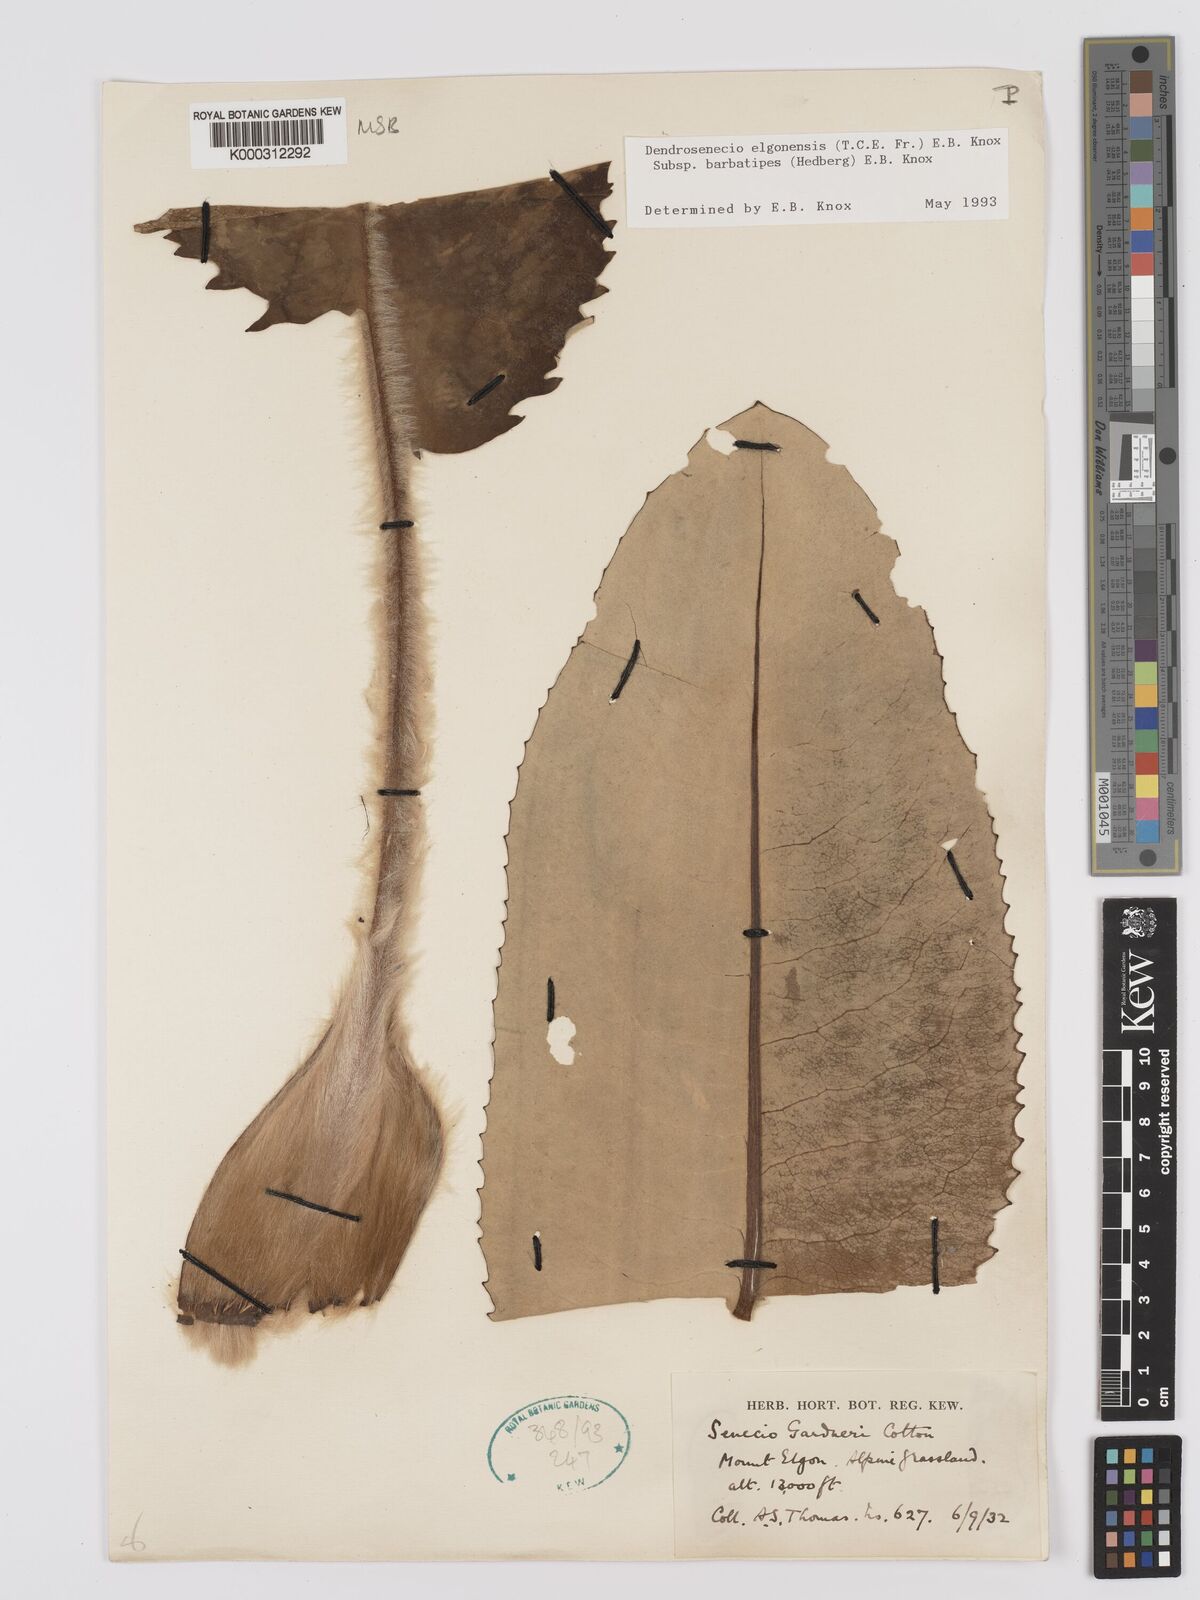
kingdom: Plantae
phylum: Tracheophyta
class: Magnoliopsida
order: Asterales
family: Asteraceae
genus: Dendrosenecio
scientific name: Dendrosenecio elgonensis
